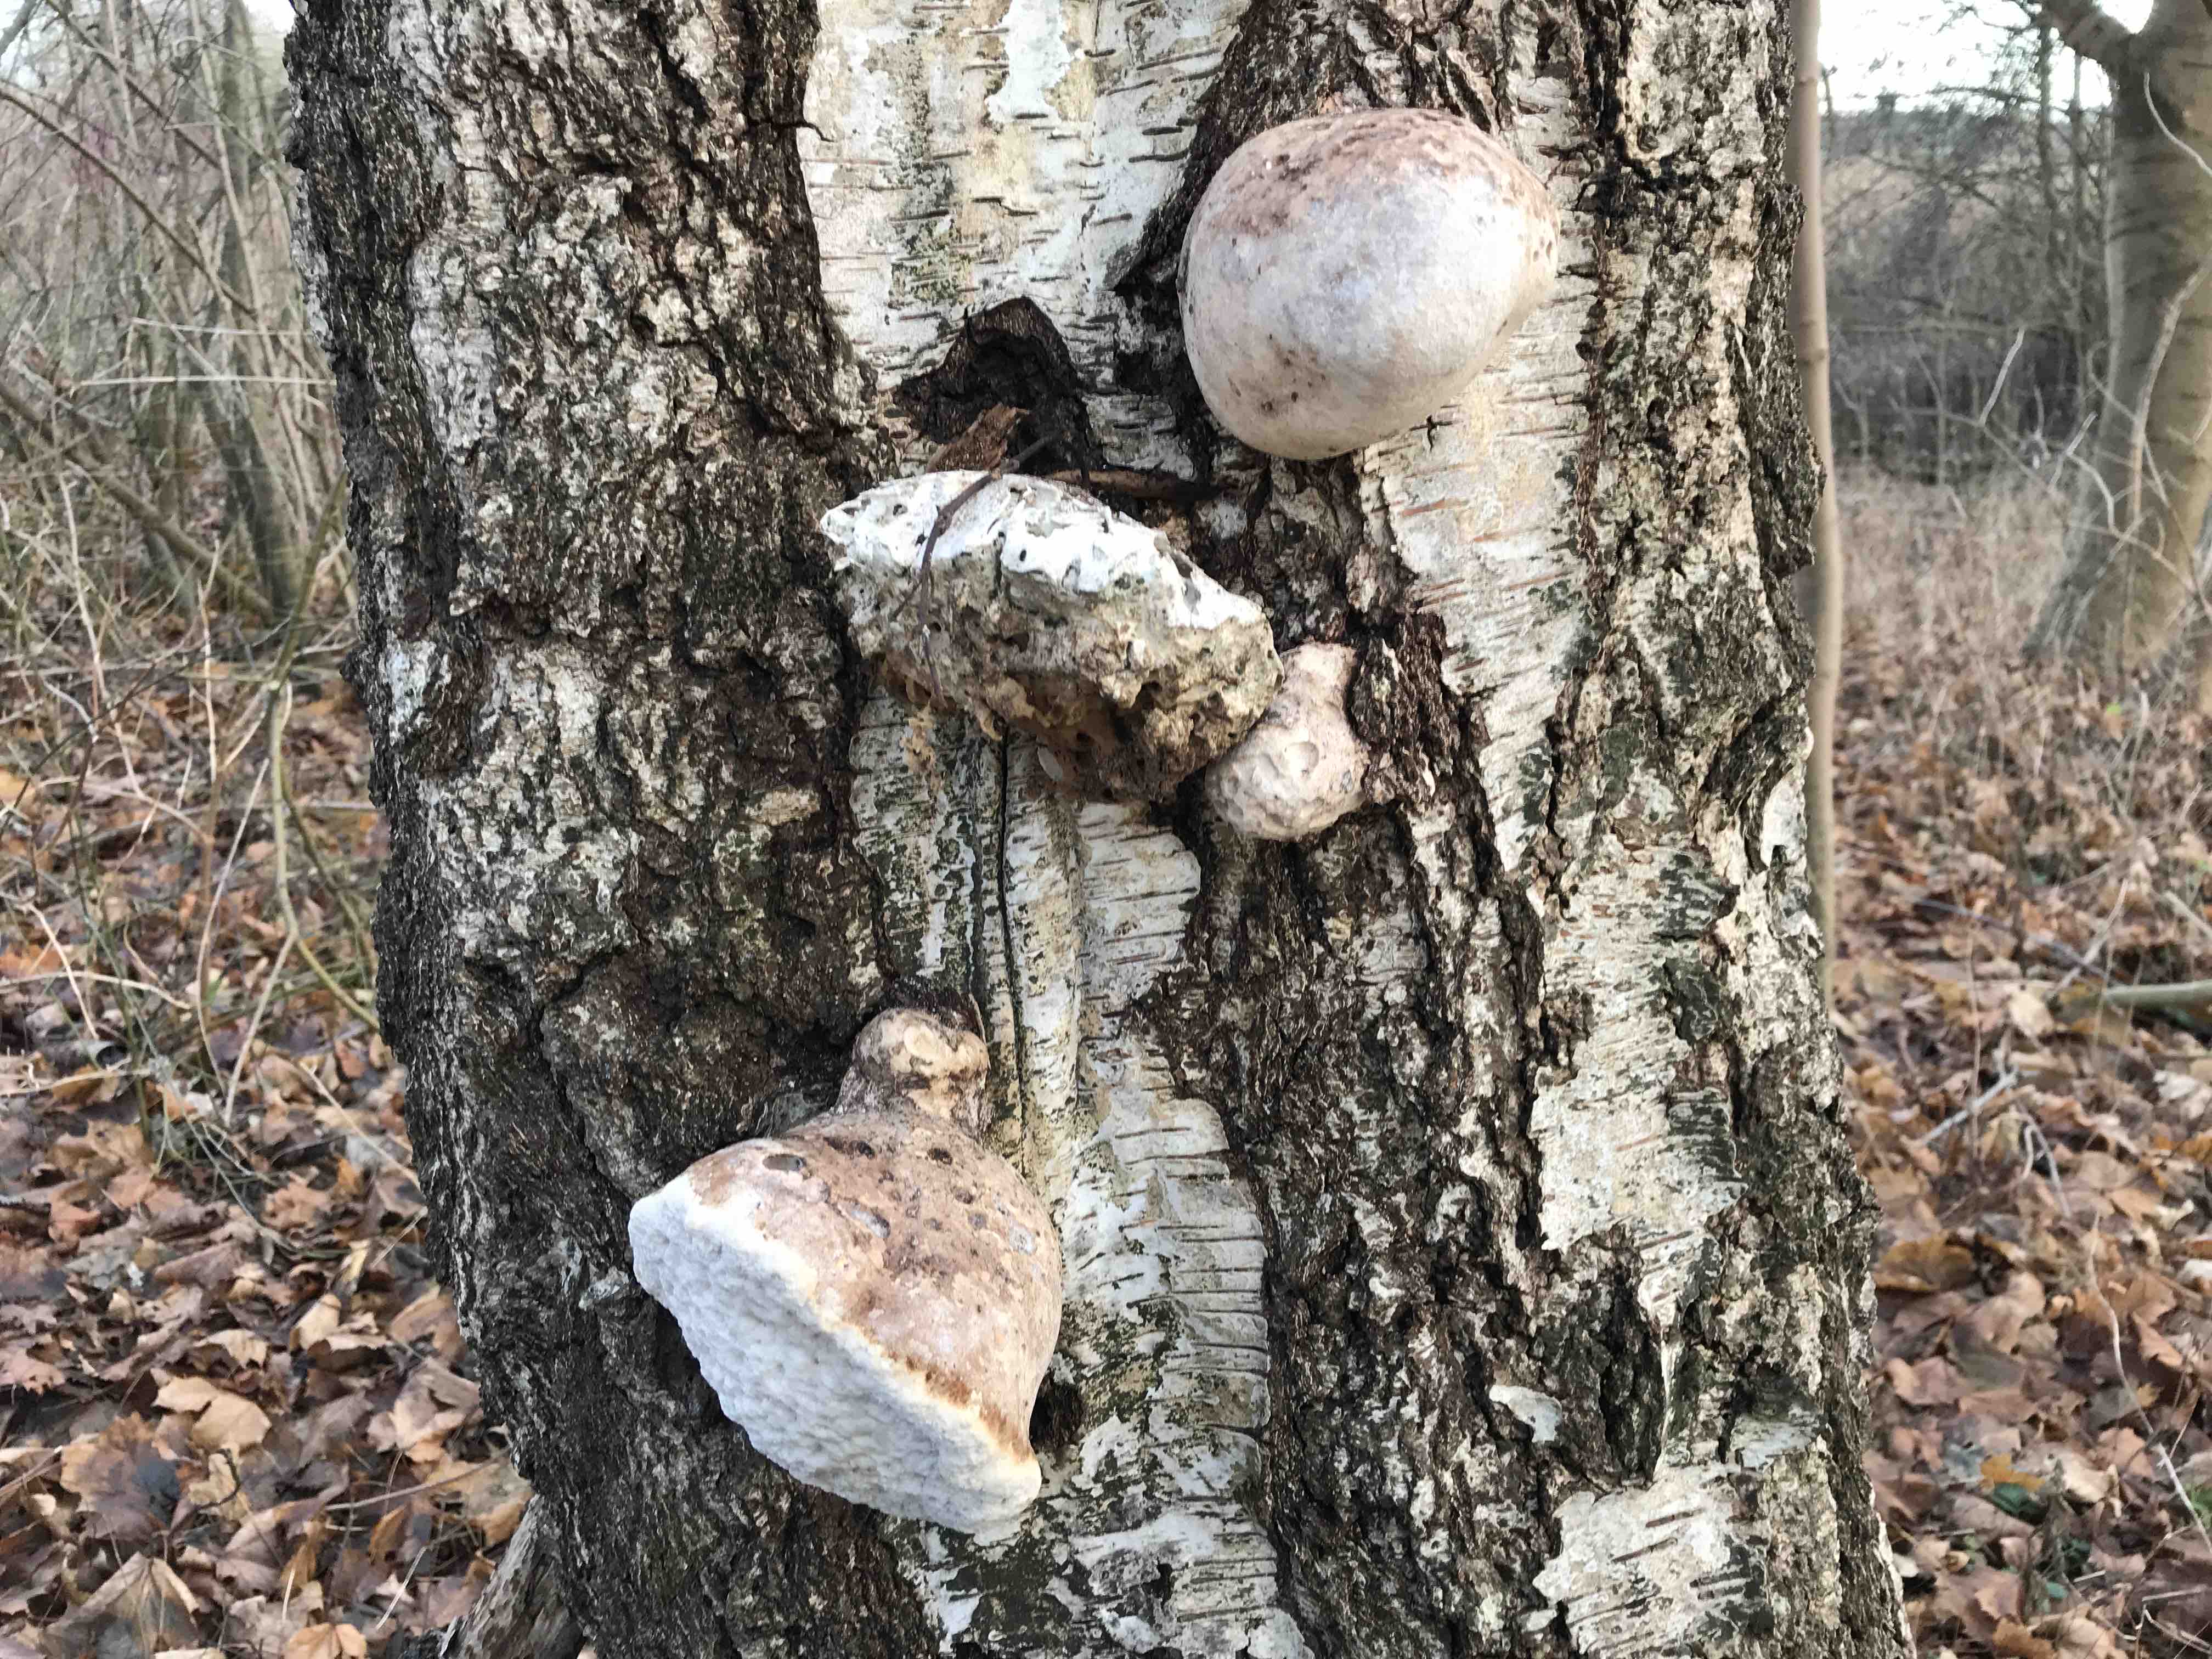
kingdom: Fungi
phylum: Basidiomycota
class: Agaricomycetes
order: Polyporales
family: Fomitopsidaceae
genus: Fomitopsis
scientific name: Fomitopsis betulina
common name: birkeporesvamp
